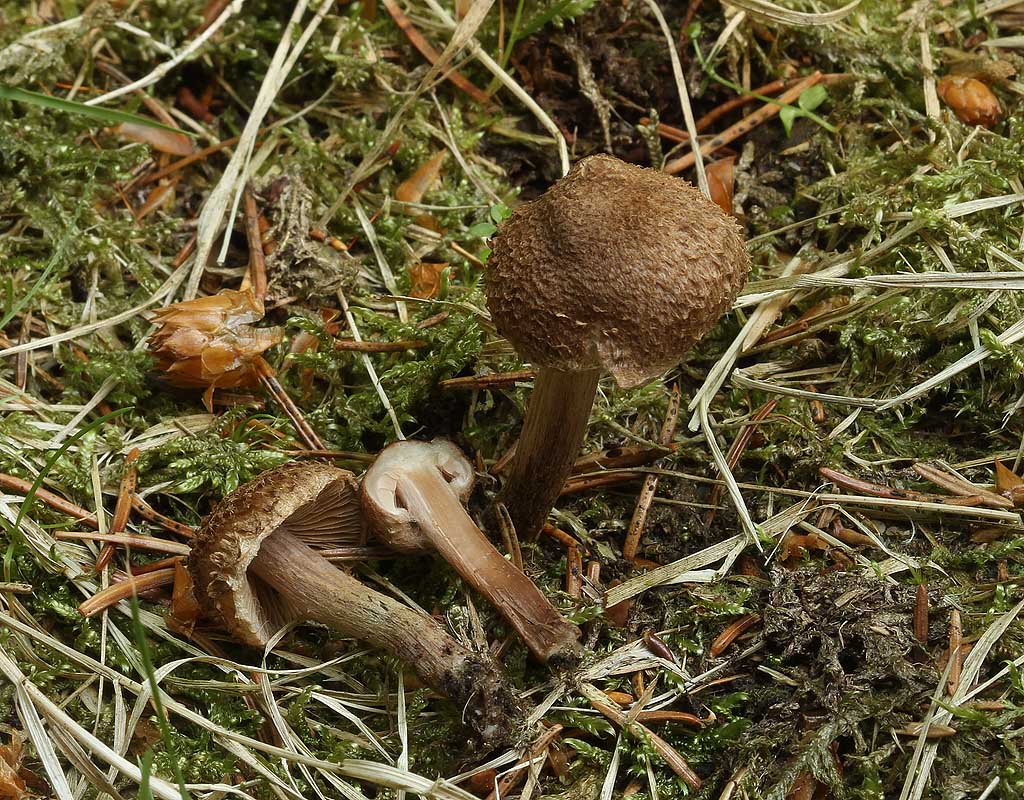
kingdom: Fungi
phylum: Basidiomycota
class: Agaricomycetes
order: Agaricales
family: Inocybaceae
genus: Inocybe
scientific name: Inocybe lacera
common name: laset trævlhat
